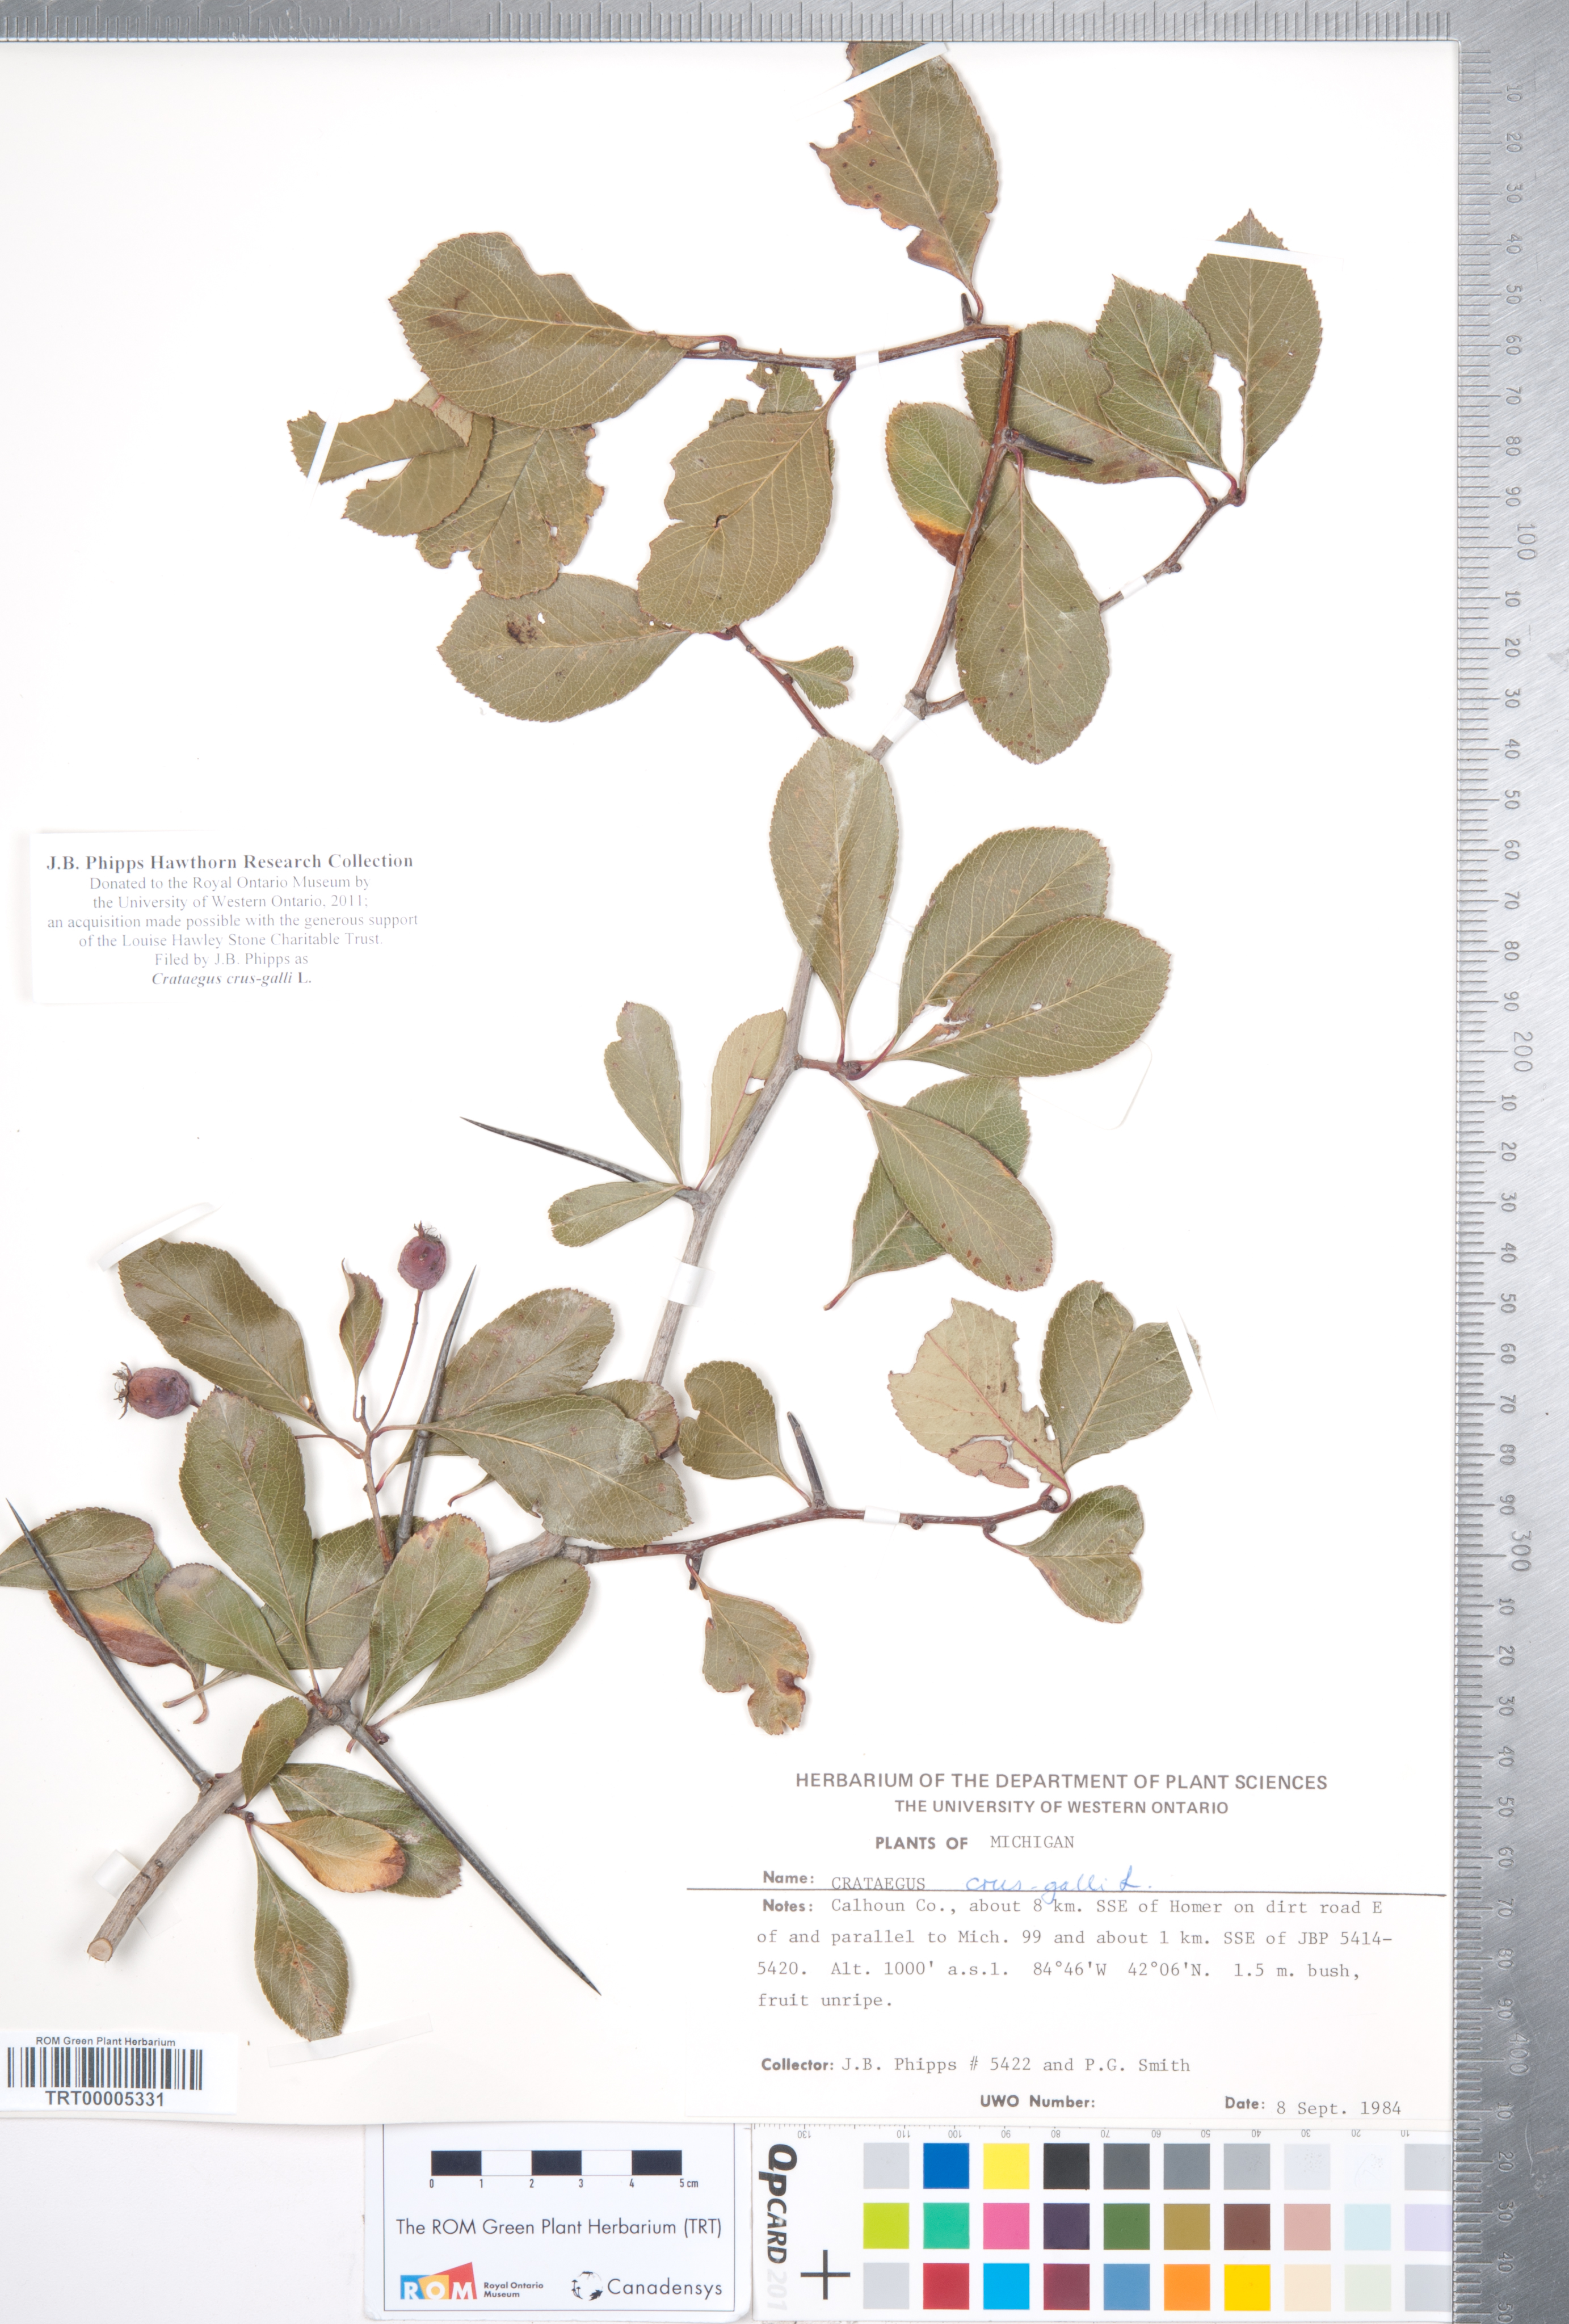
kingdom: Plantae
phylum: Tracheophyta
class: Magnoliopsida
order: Rosales
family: Rosaceae
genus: Crataegus
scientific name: Crataegus crus-galli
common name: Cockspurthorn
